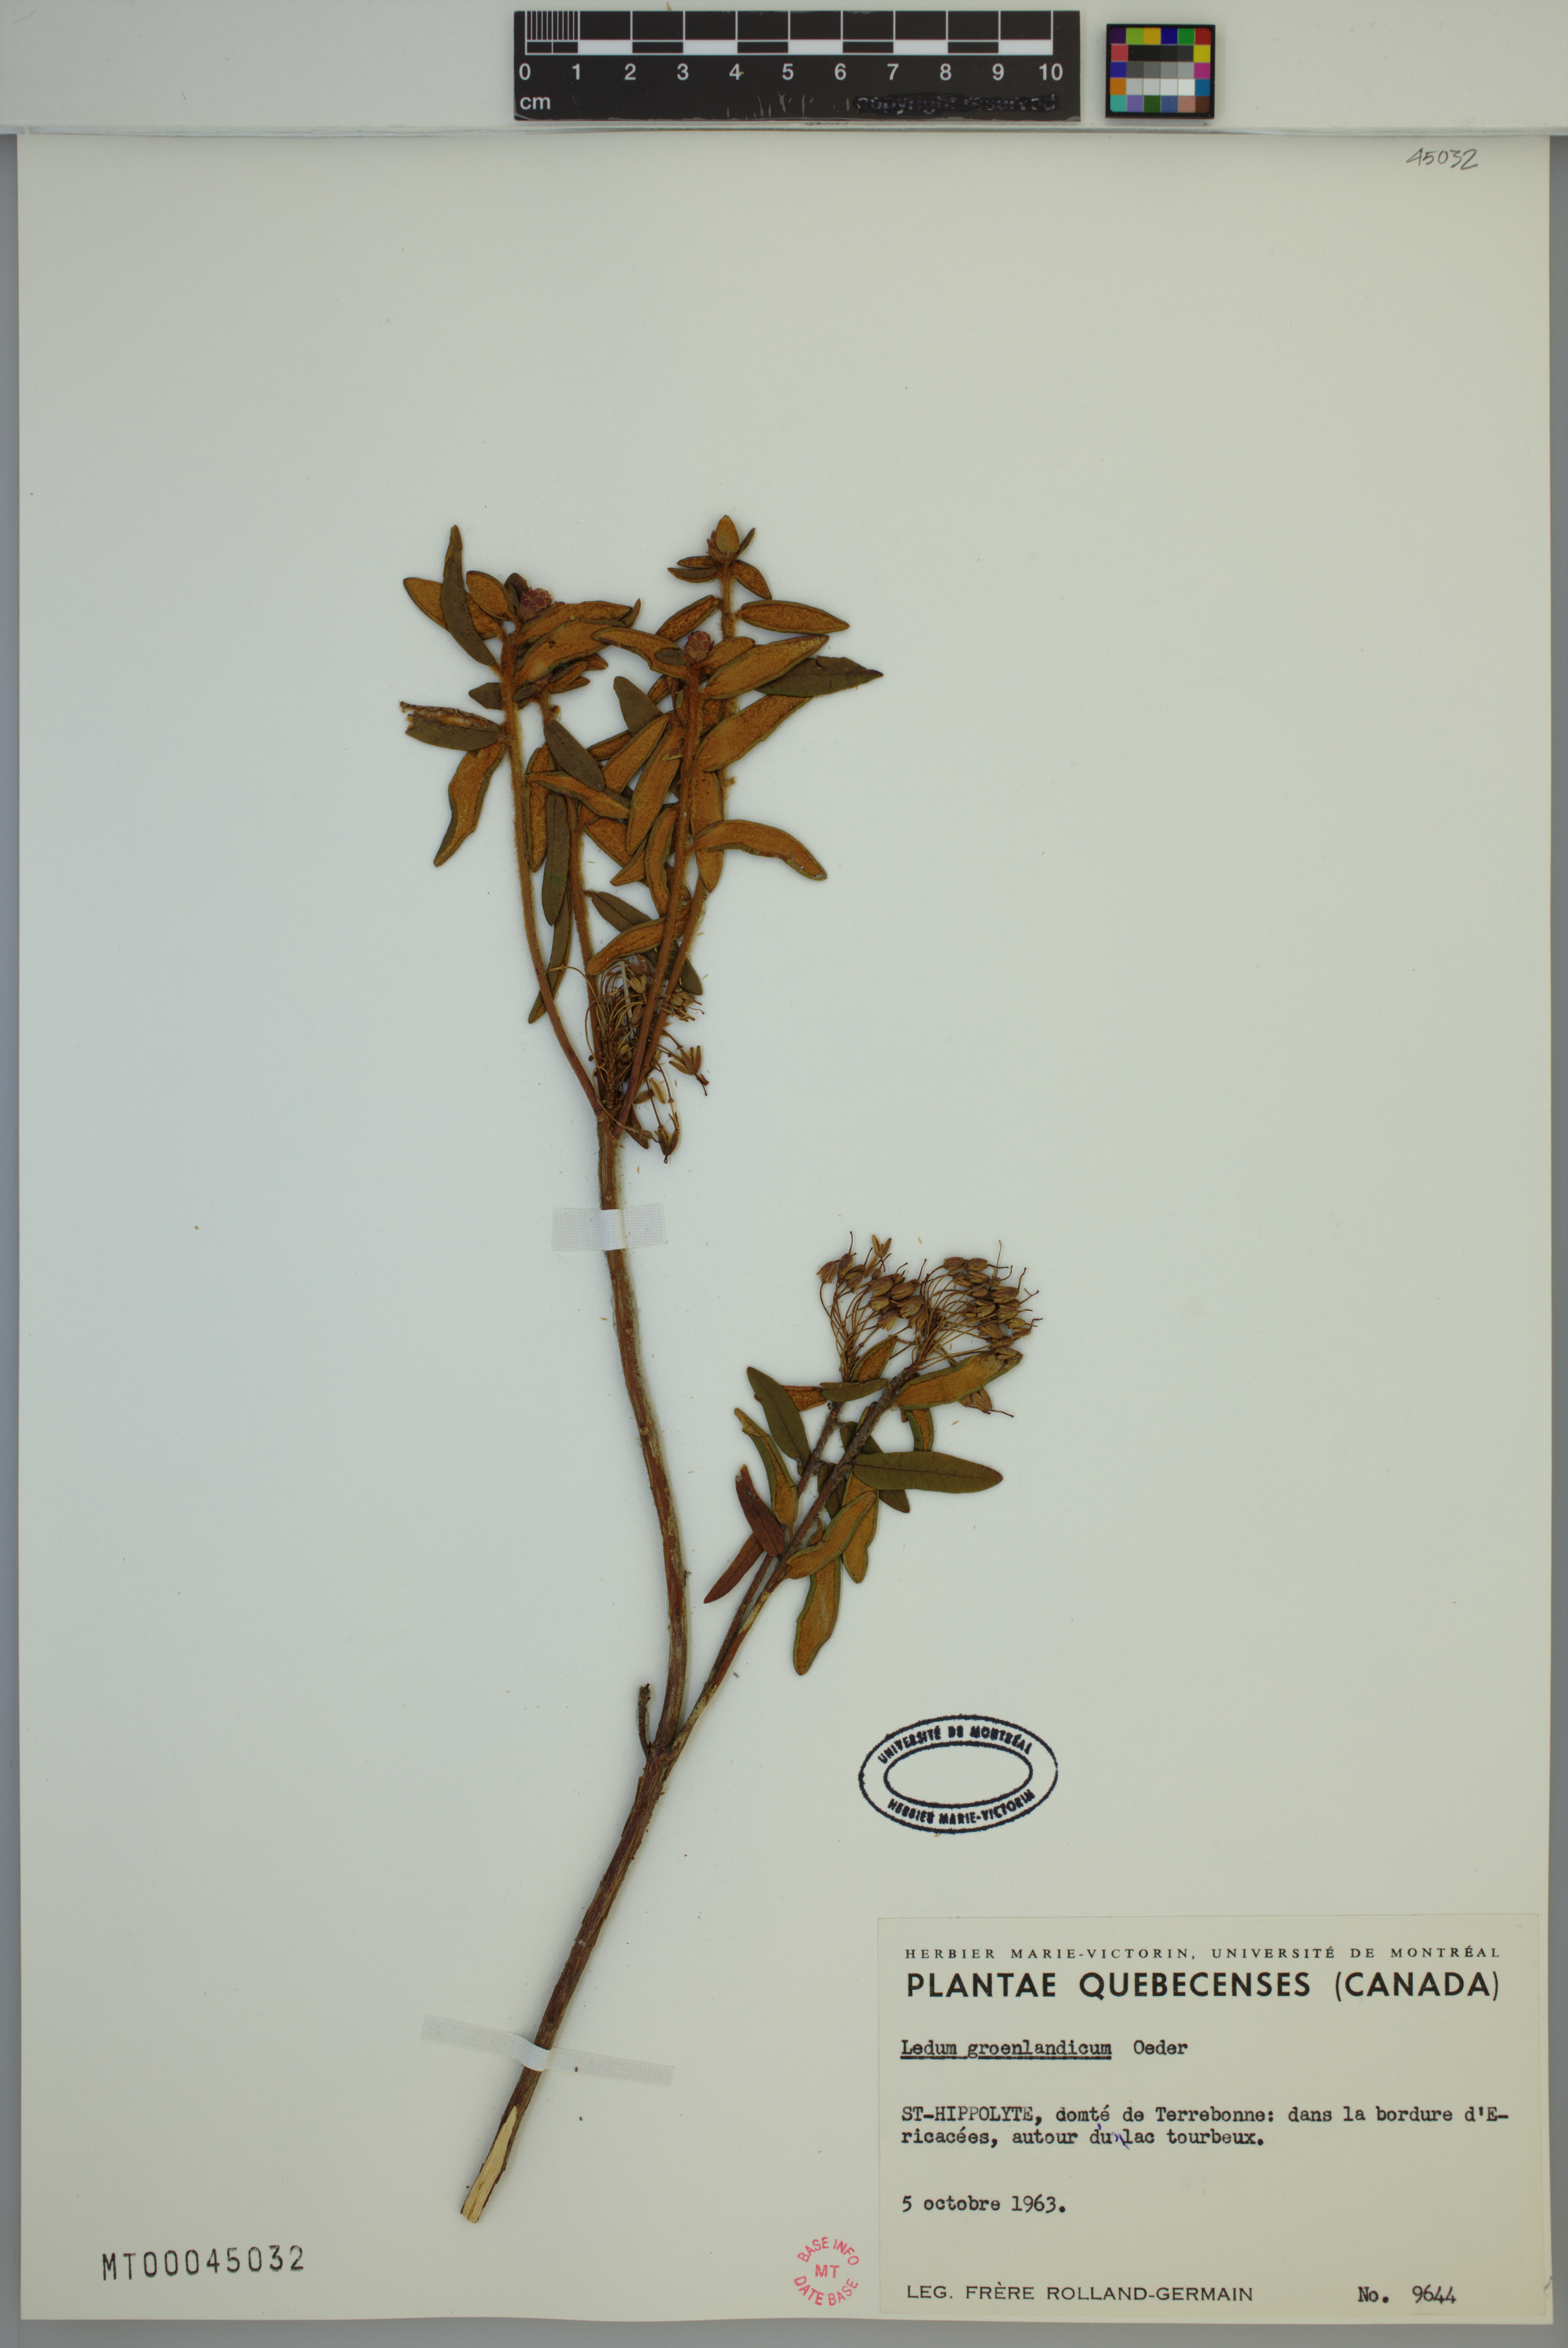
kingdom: Plantae
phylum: Tracheophyta
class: Magnoliopsida
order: Ericales
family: Ericaceae
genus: Rhododendron
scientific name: Rhododendron groenlandicum
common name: Bog labrador tea
